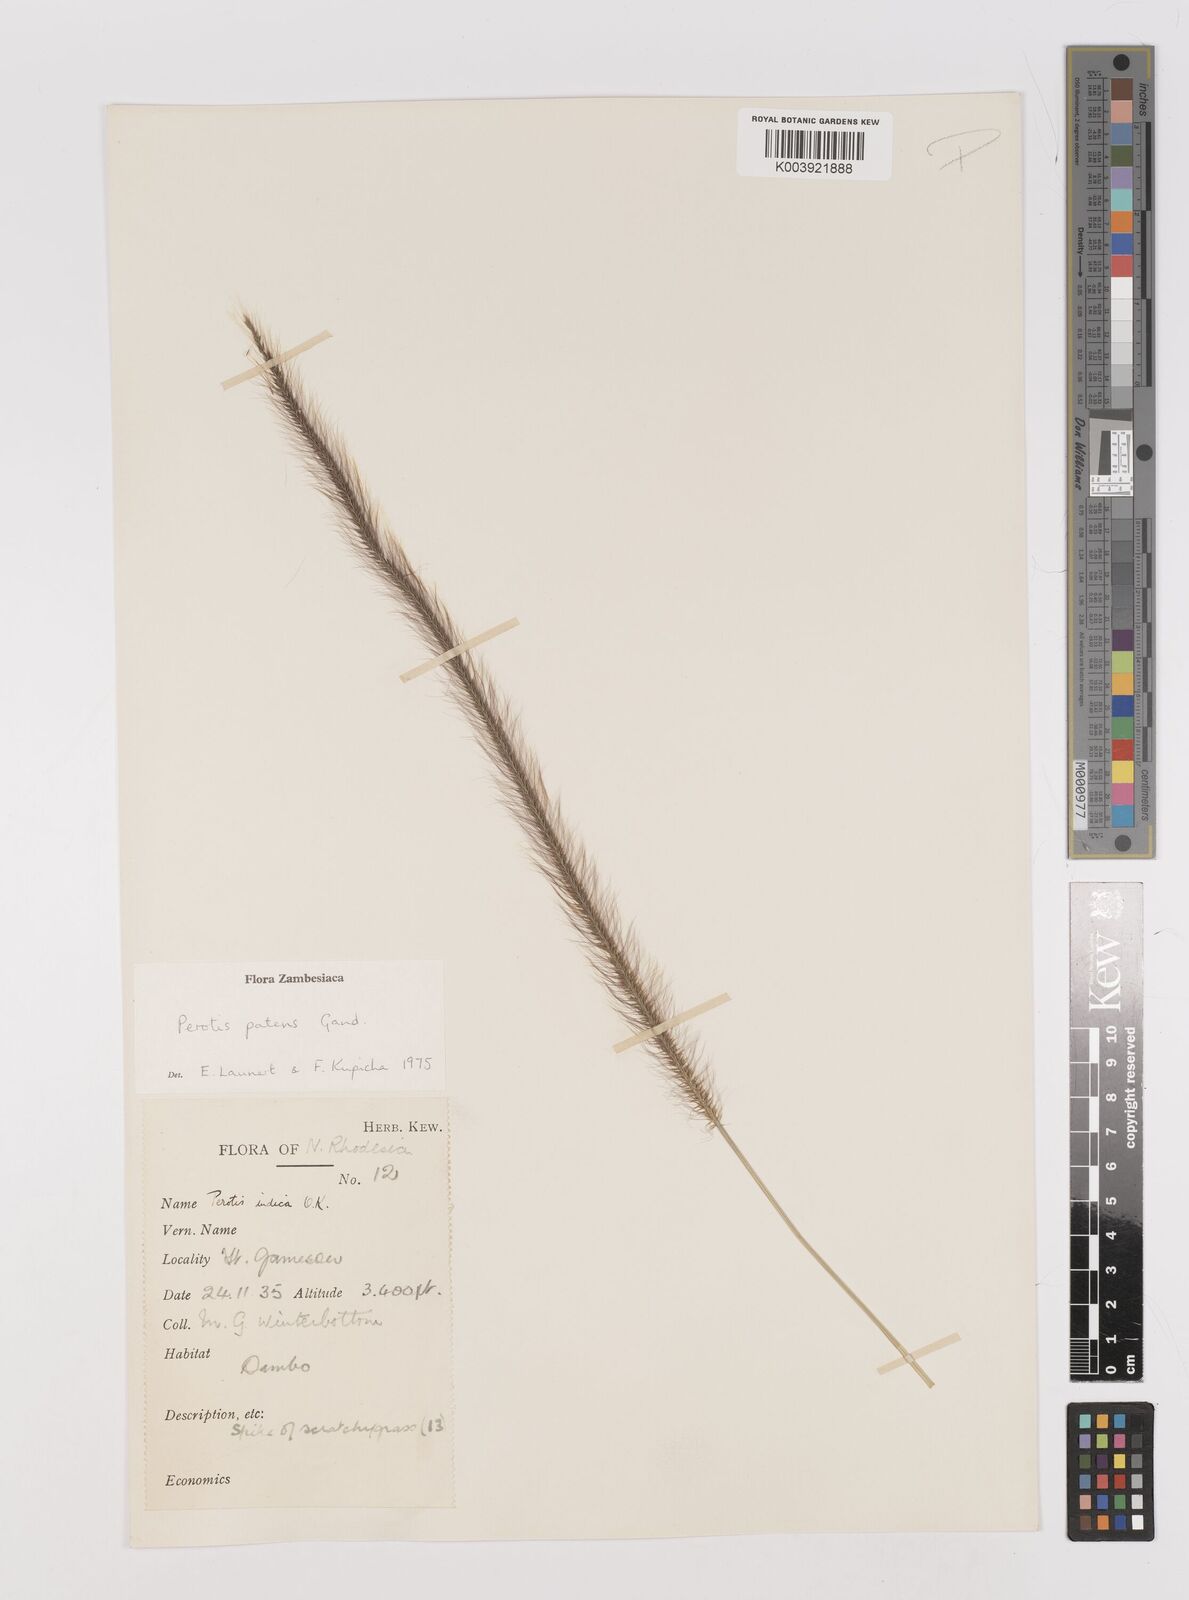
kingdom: Plantae
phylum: Tracheophyta
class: Liliopsida
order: Poales
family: Poaceae
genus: Perotis
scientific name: Perotis patens
